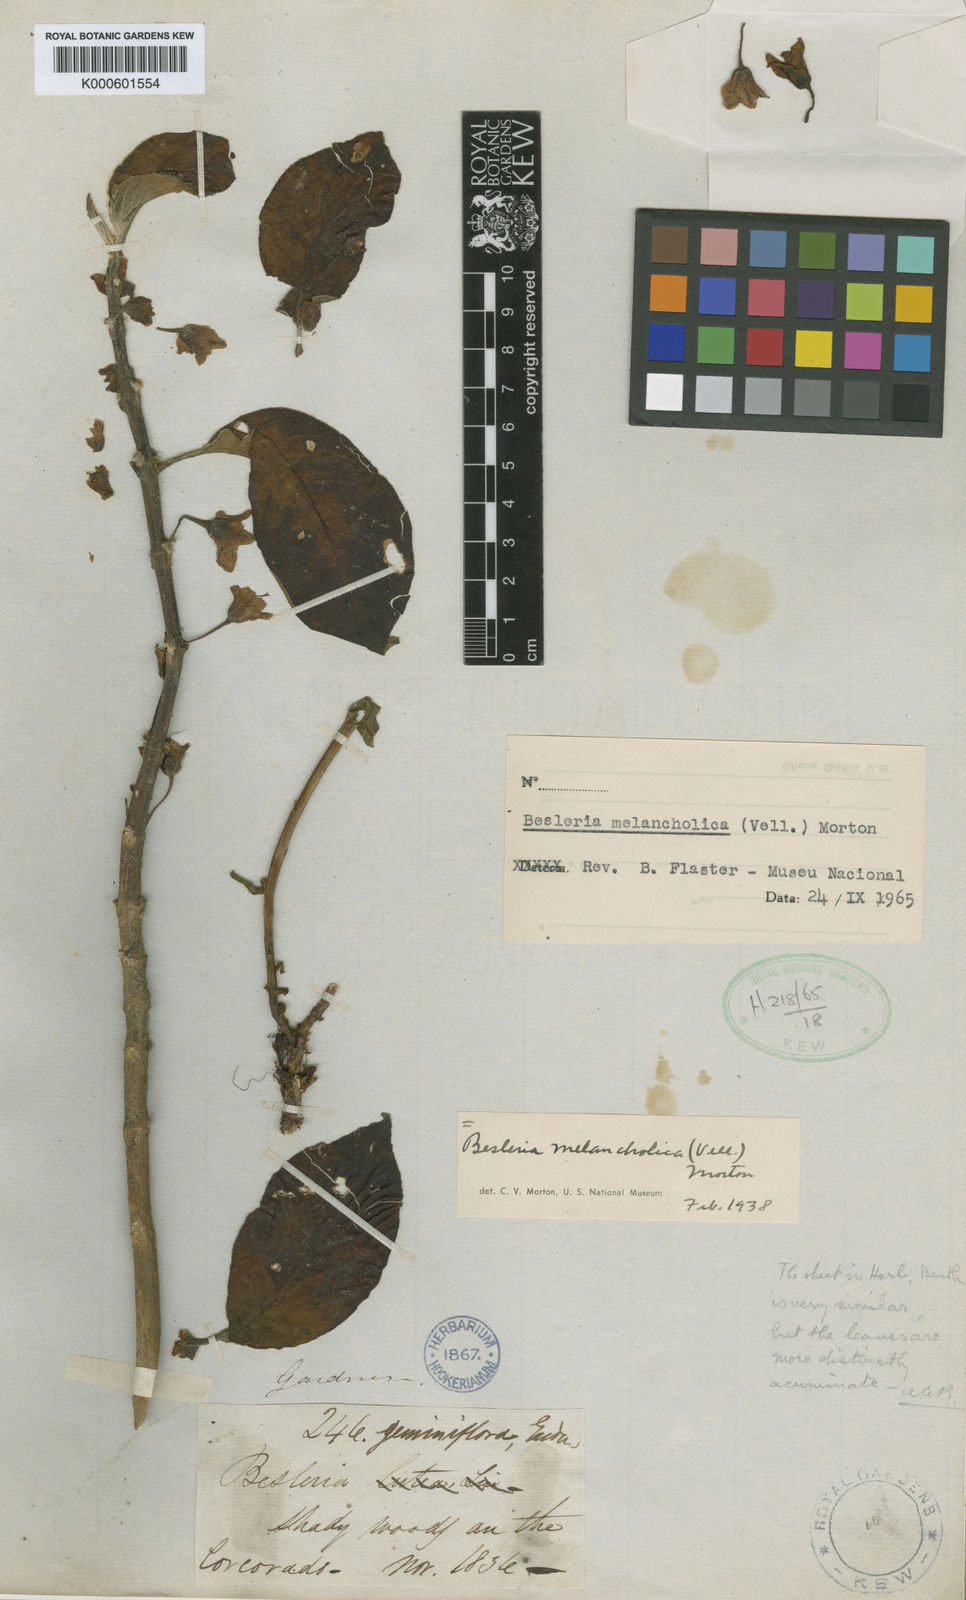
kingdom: Plantae
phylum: Tracheophyta
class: Magnoliopsida
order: Lamiales
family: Gesneriaceae
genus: Besleria
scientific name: Besleria melancholica
